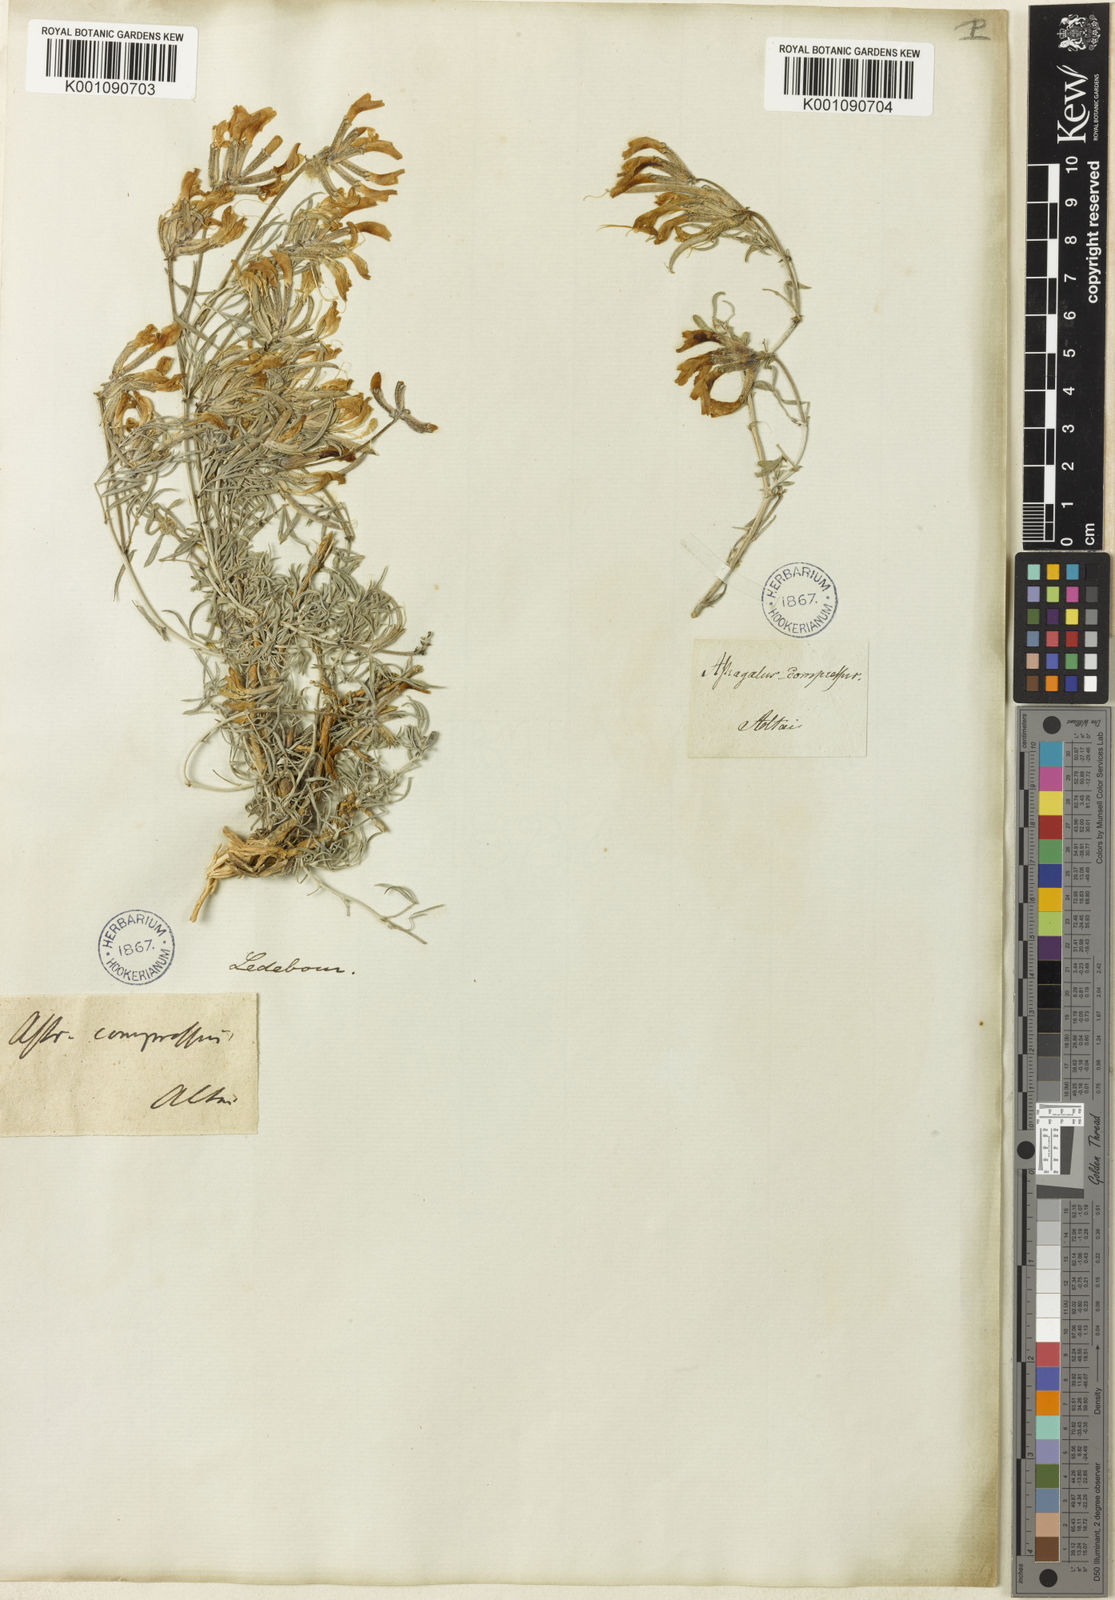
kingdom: Plantae
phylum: Tracheophyta
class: Magnoliopsida
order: Fabales
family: Fabaceae
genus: Astragalus
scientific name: Astragalus
